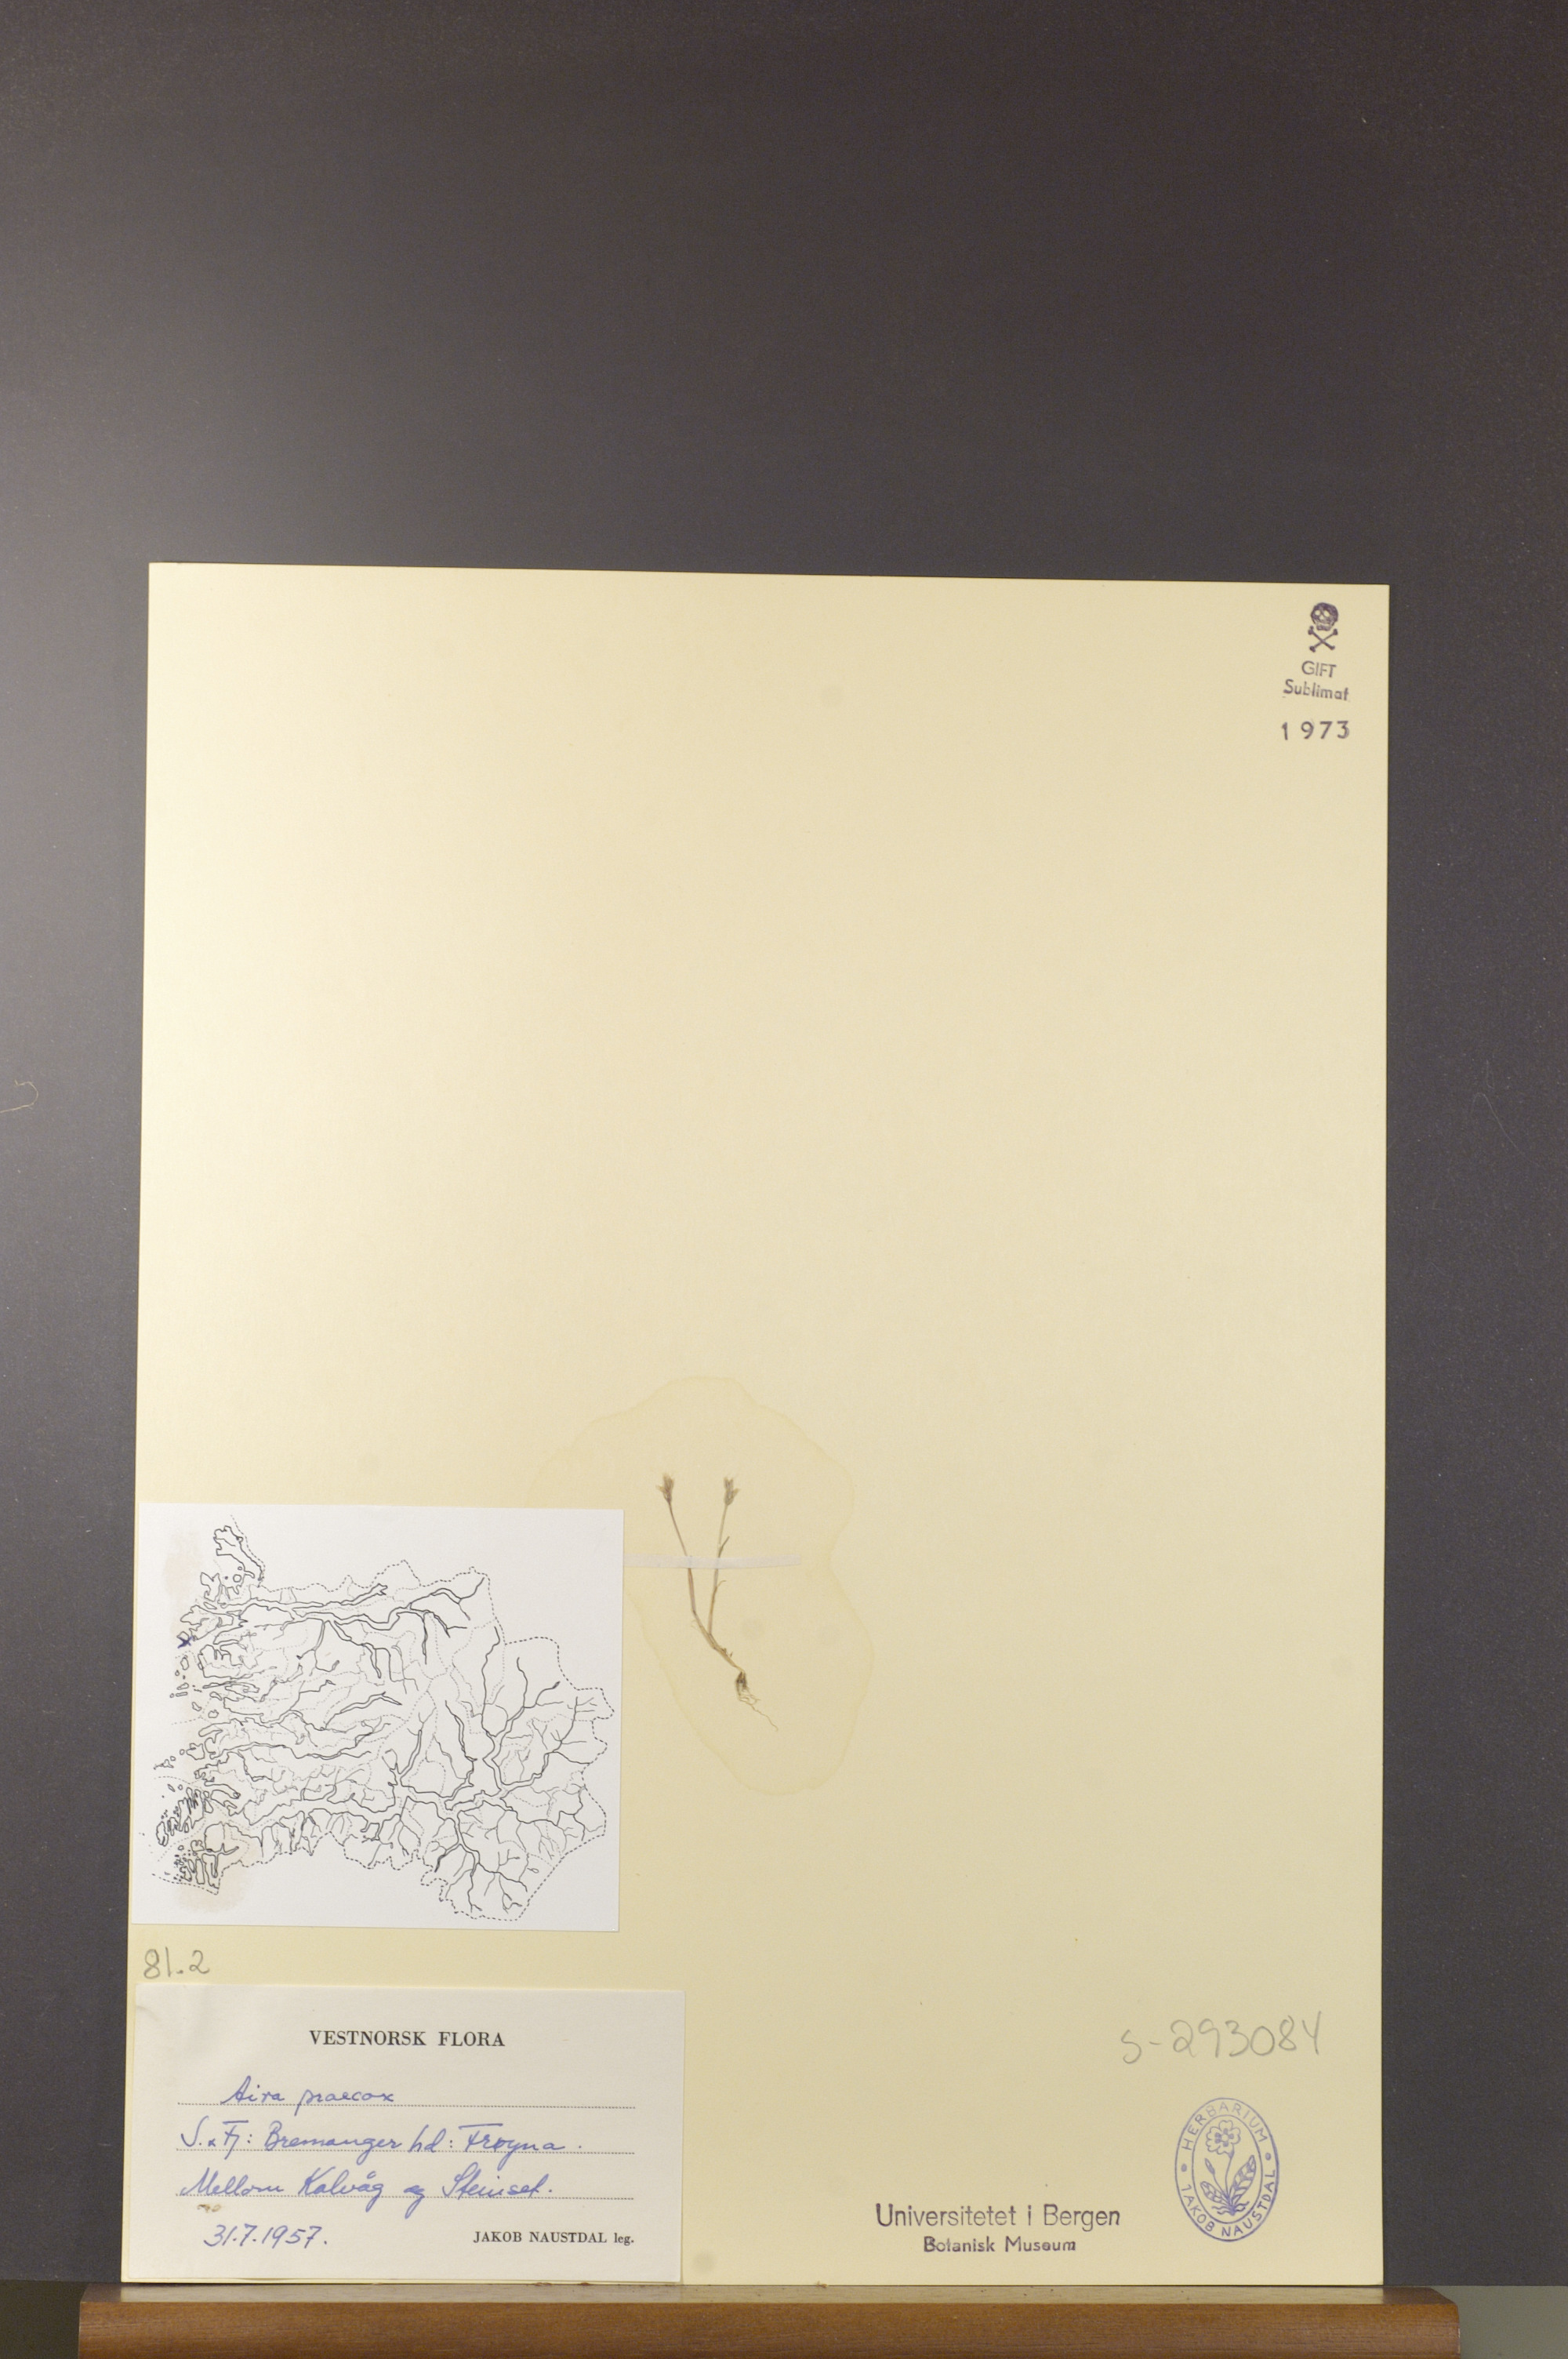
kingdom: Plantae
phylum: Tracheophyta
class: Liliopsida
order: Poales
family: Poaceae
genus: Aira
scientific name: Aira praecox
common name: Early hair-grass
